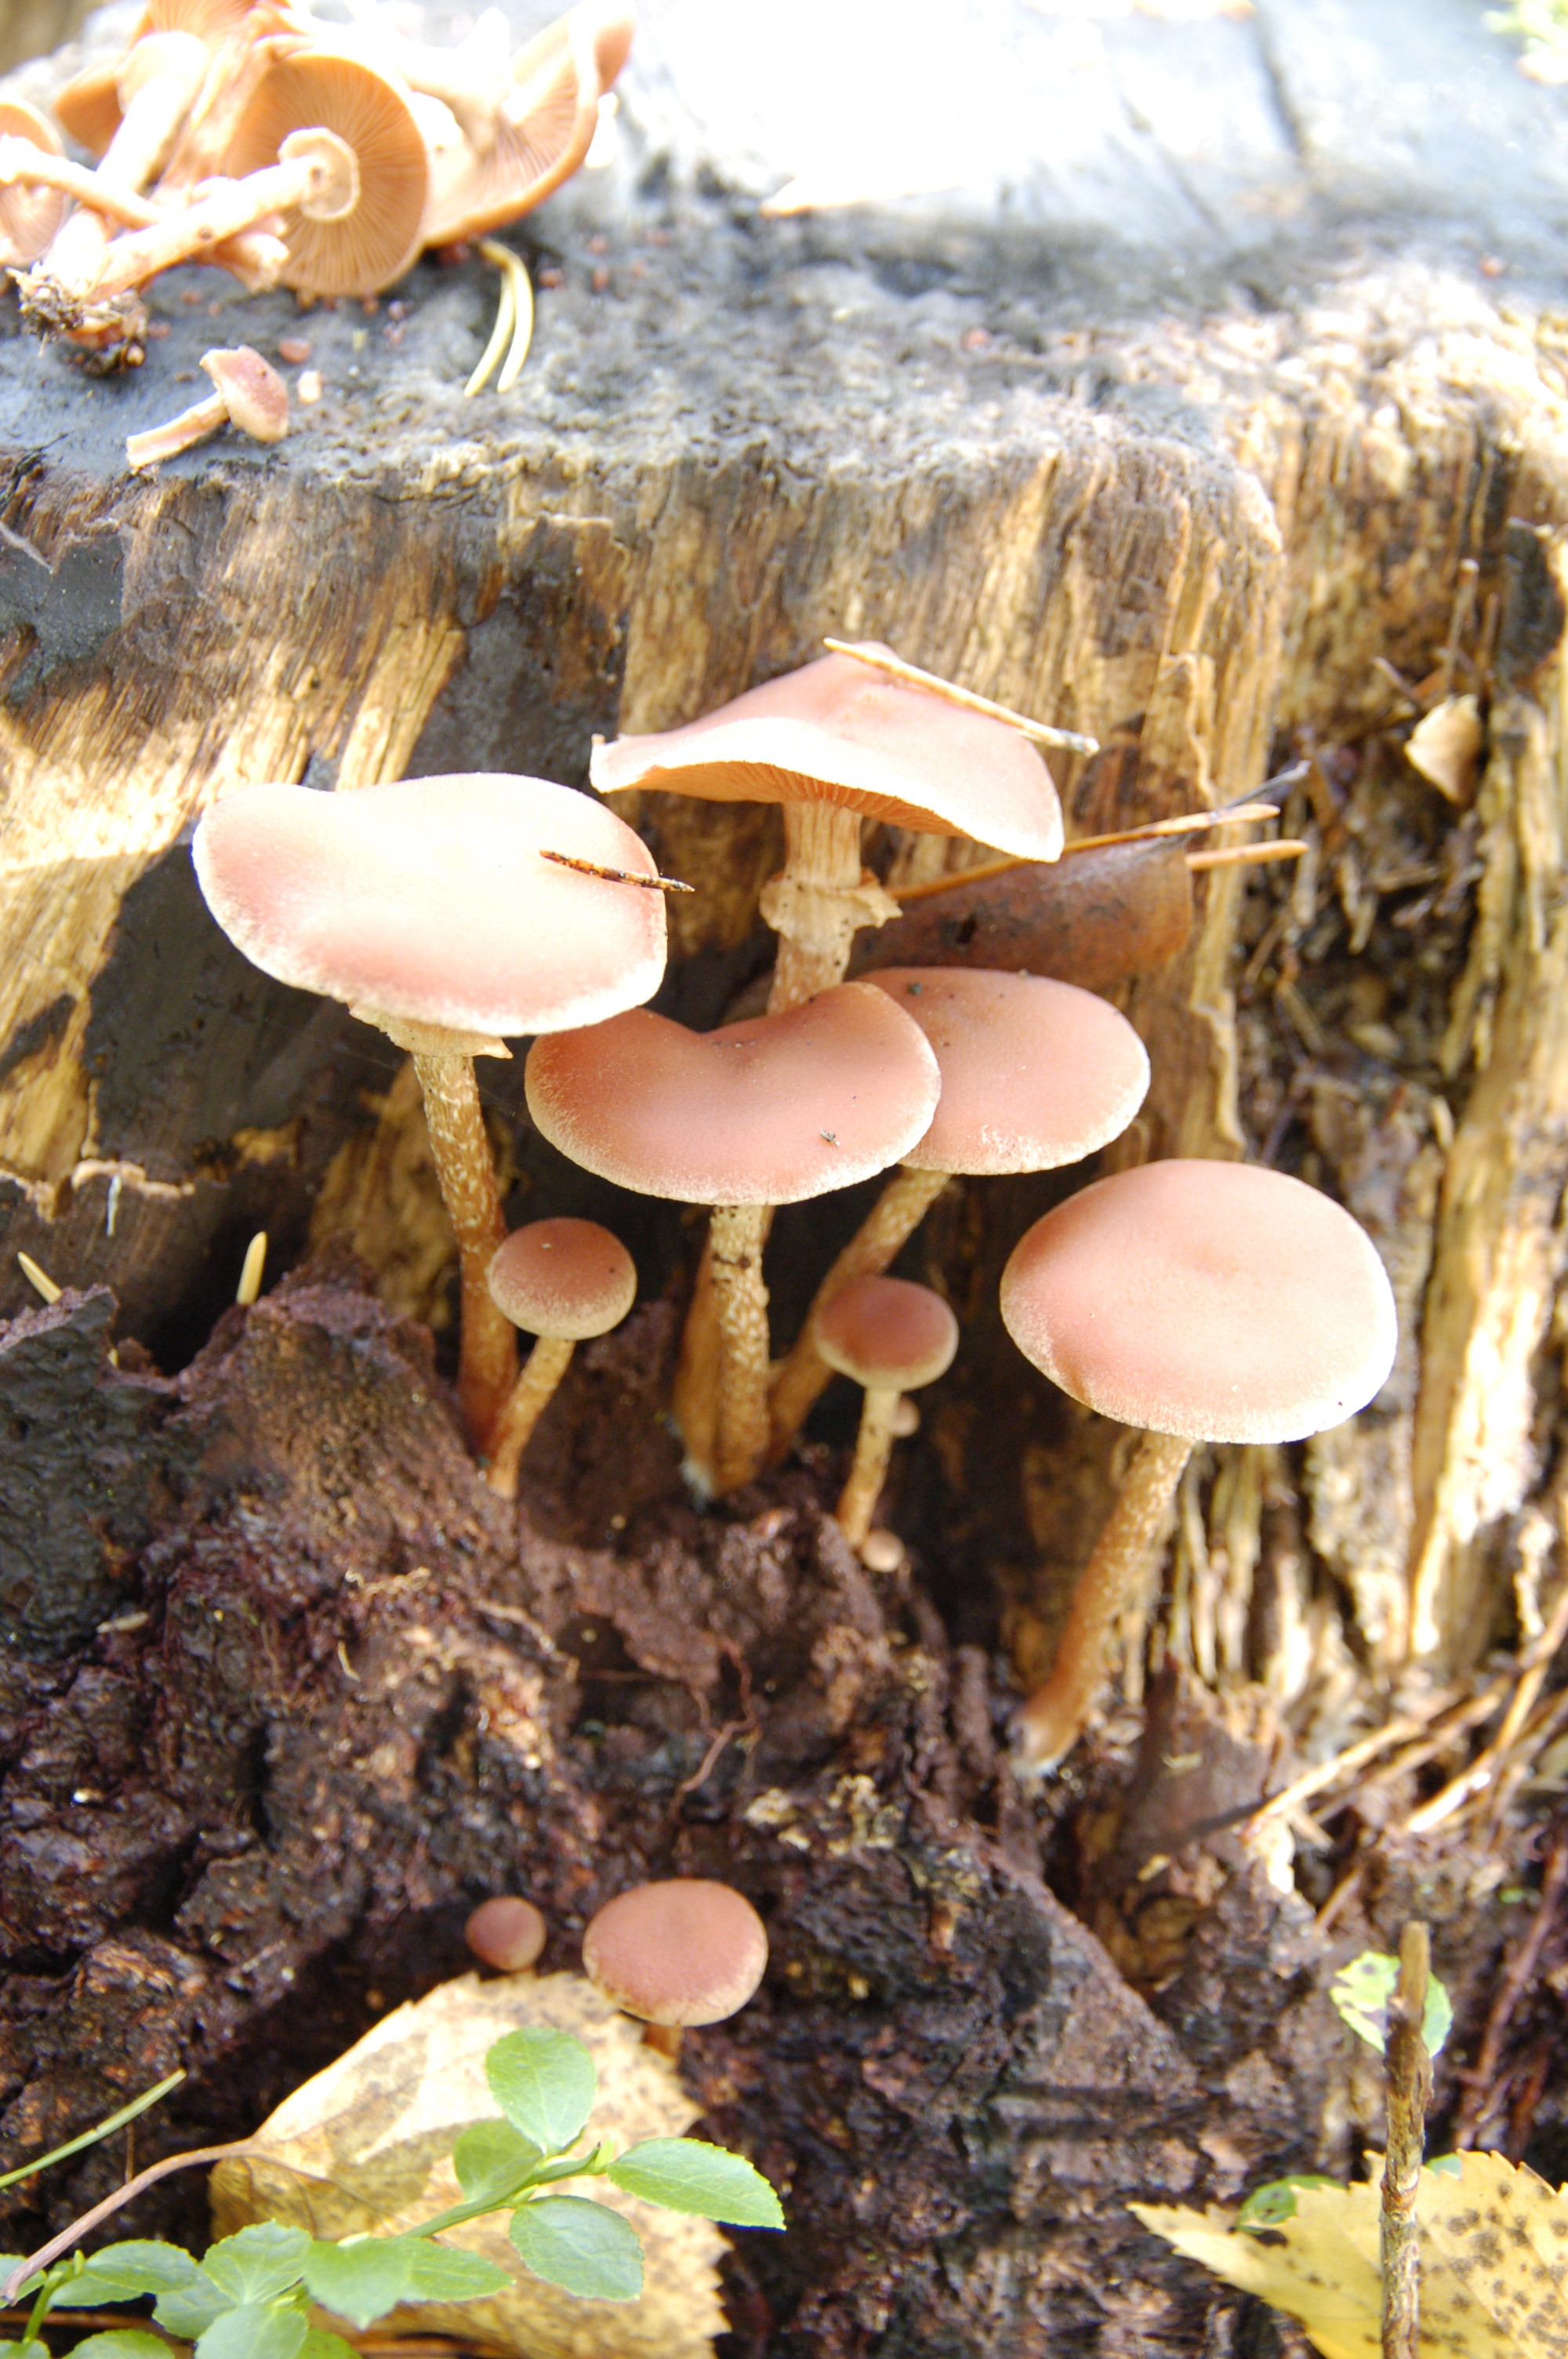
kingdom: Fungi
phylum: Basidiomycota
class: Agaricomycetes
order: Agaricales
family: Tubariaceae
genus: Tubaria
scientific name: Tubaria confragosa
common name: Ringed twiglet
